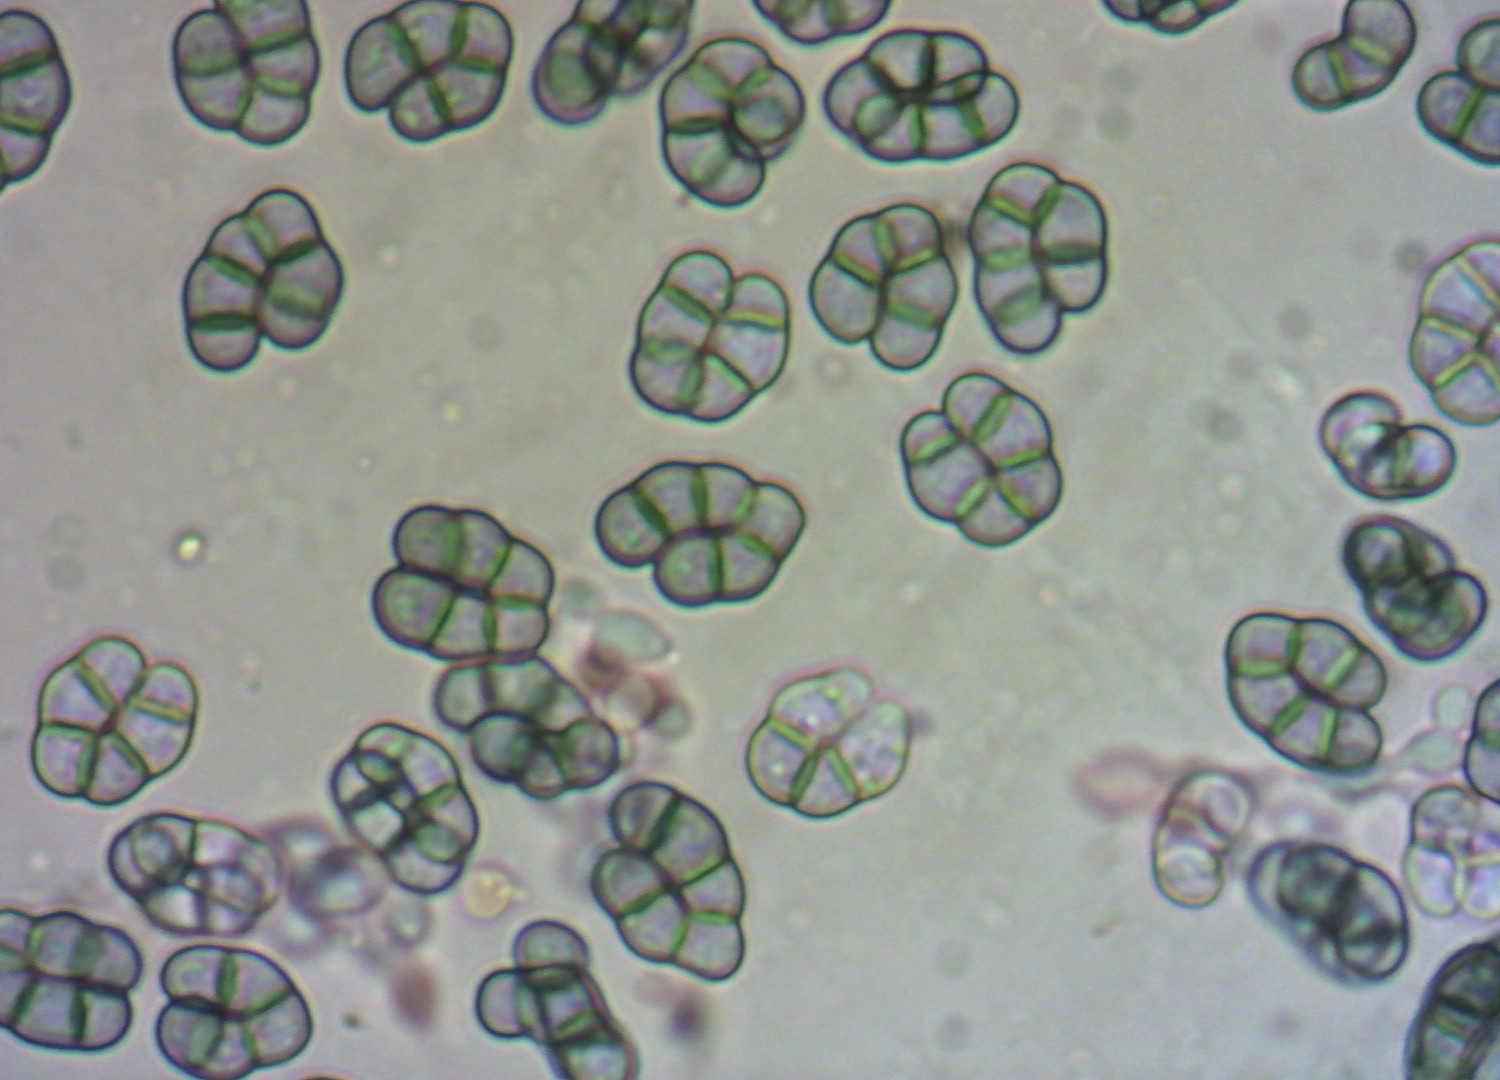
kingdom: Fungi
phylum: Ascomycota
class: Leotiomycetes
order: Helotiales
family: Hyaloscyphaceae
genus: Eupezizella
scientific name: Eupezizella aureliella
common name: almindelig klarskive
